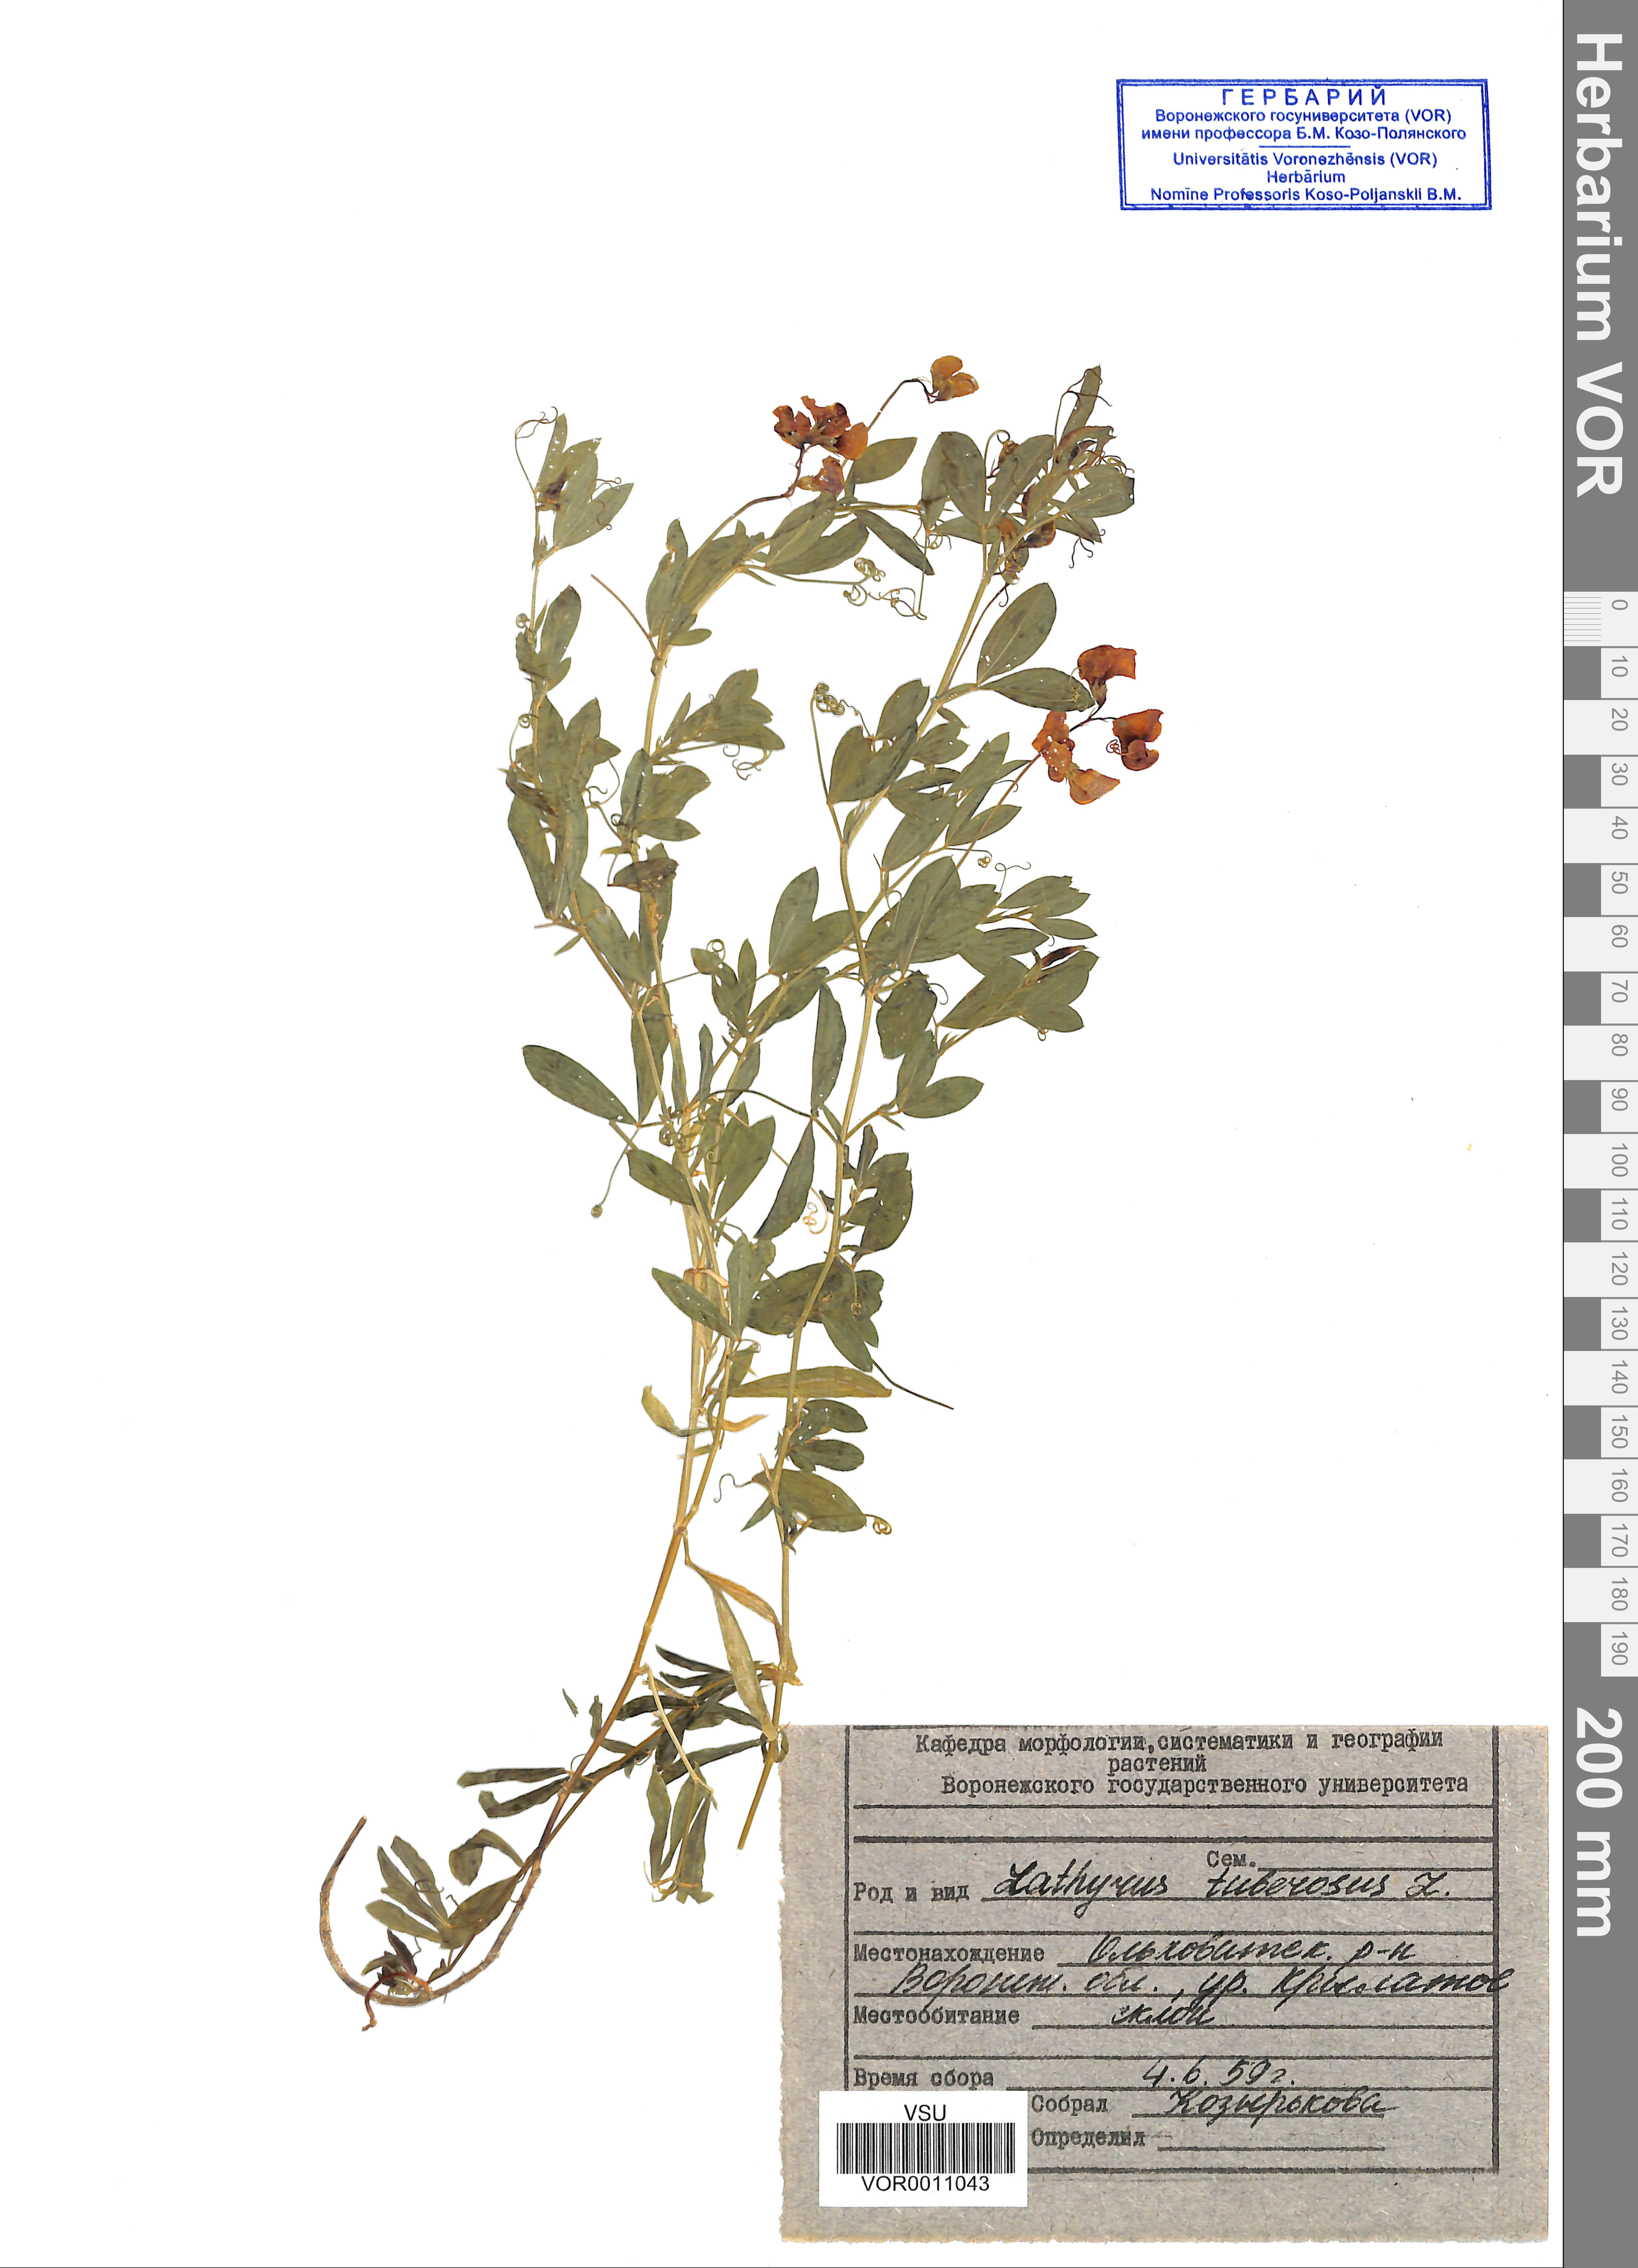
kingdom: Plantae
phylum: Tracheophyta
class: Magnoliopsida
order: Fabales
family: Fabaceae
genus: Lathyrus
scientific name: Lathyrus tuberosus
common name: Tuberous pea
